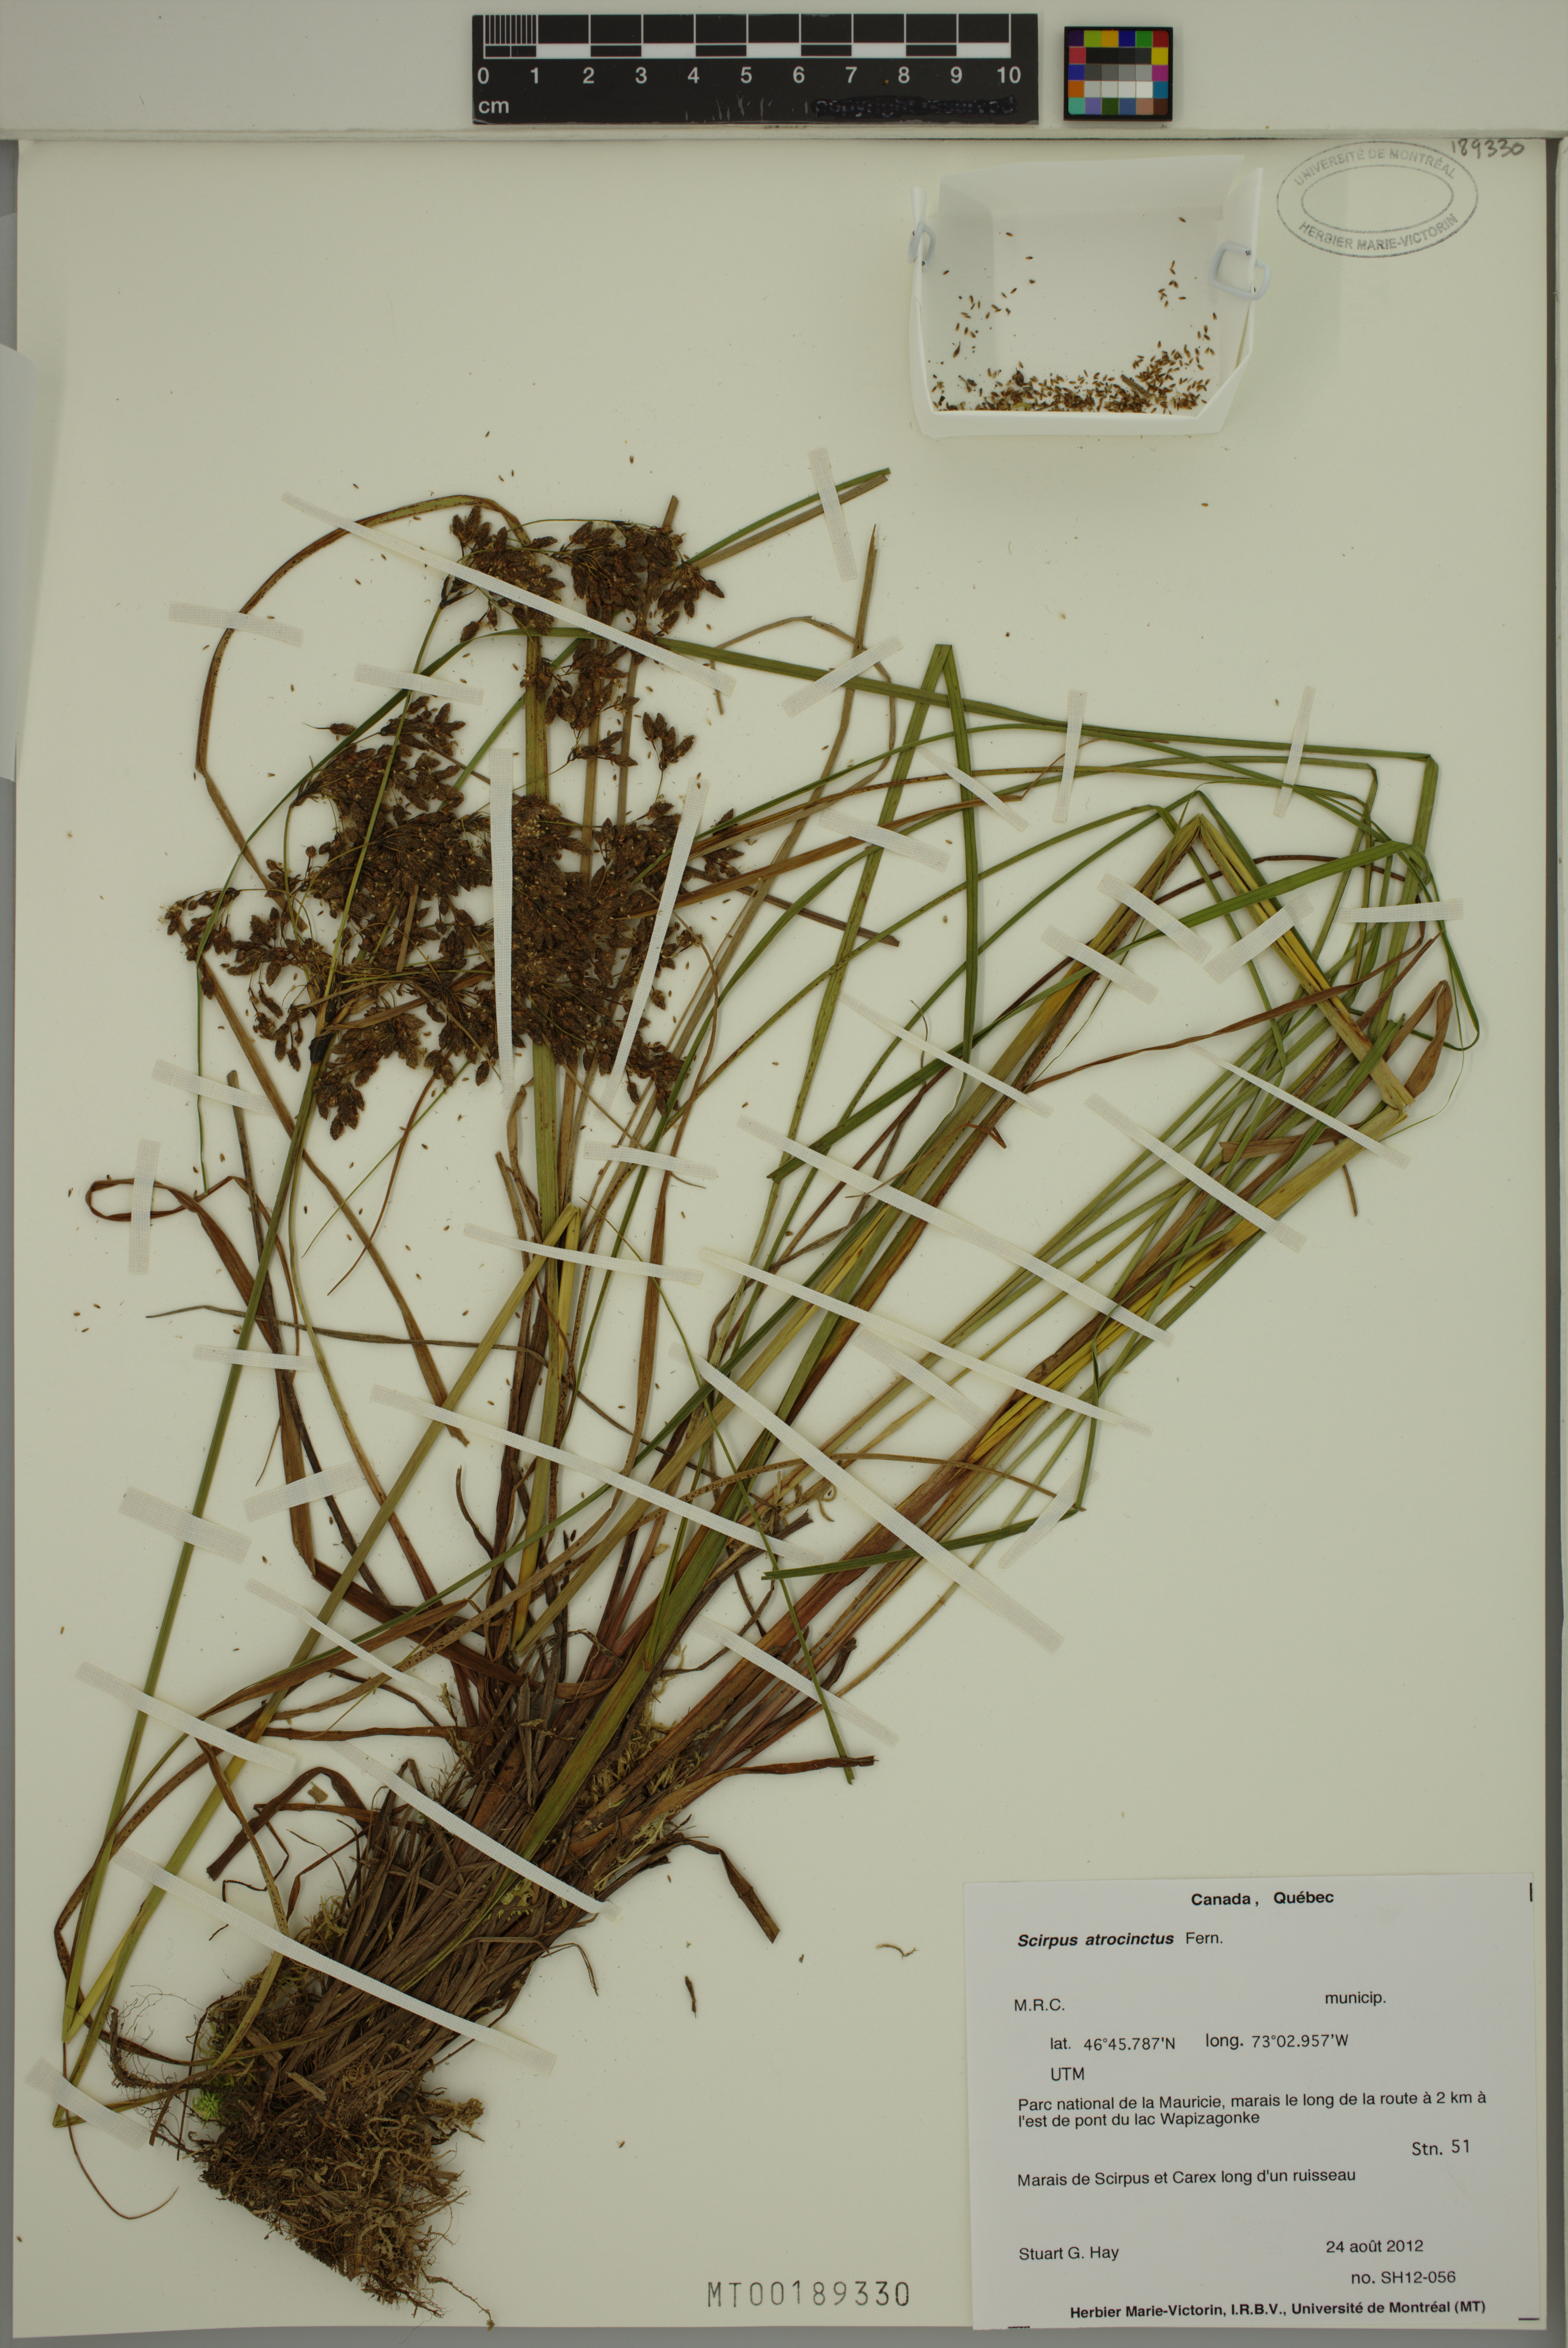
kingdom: Plantae
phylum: Tracheophyta
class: Liliopsida
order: Poales
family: Cyperaceae
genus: Scirpus
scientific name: Scirpus atrocinctus
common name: Black-girdled bulrush
